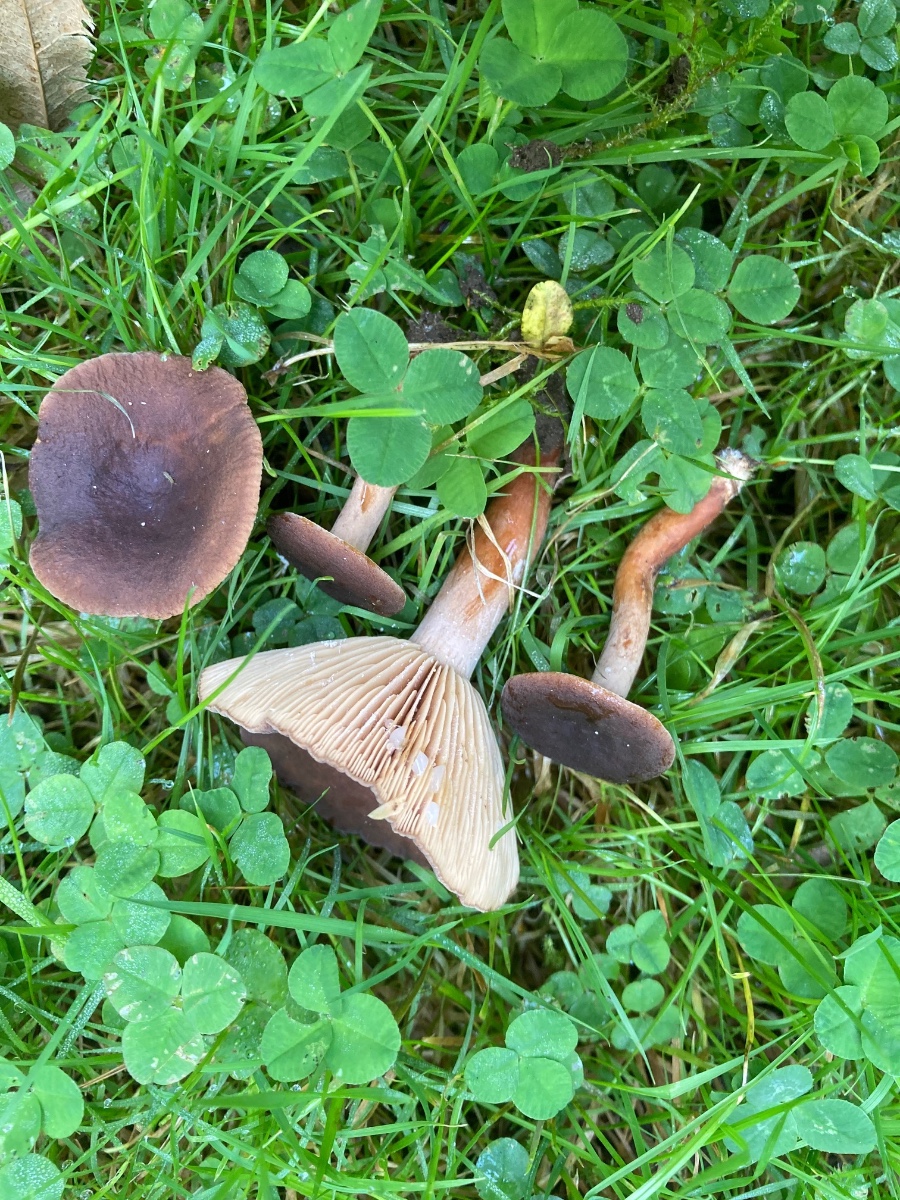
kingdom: Fungi
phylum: Basidiomycota
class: Agaricomycetes
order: Russulales
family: Russulaceae
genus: Lactarius
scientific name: Lactarius serifluus
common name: tæge-mælkehat
